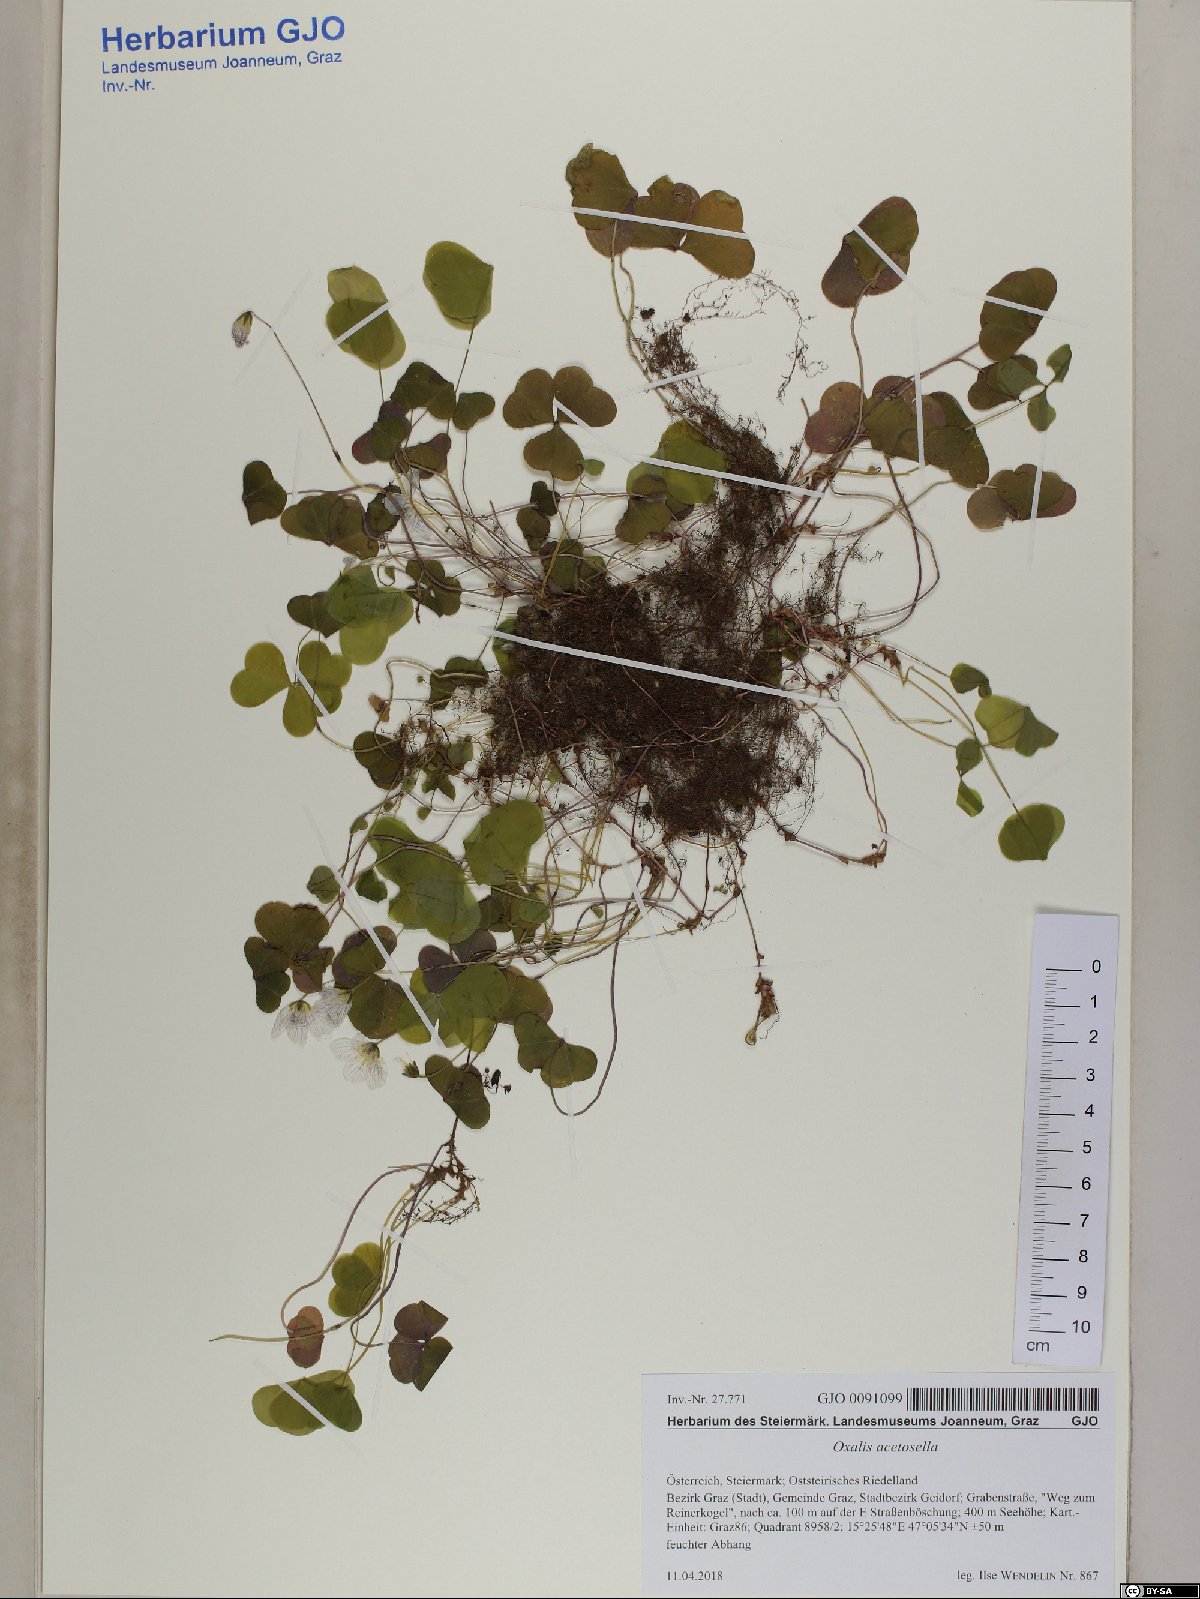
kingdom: Plantae
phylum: Tracheophyta
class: Magnoliopsida
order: Oxalidales
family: Oxalidaceae
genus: Oxalis
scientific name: Oxalis acetosella
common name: Wood-sorrel
